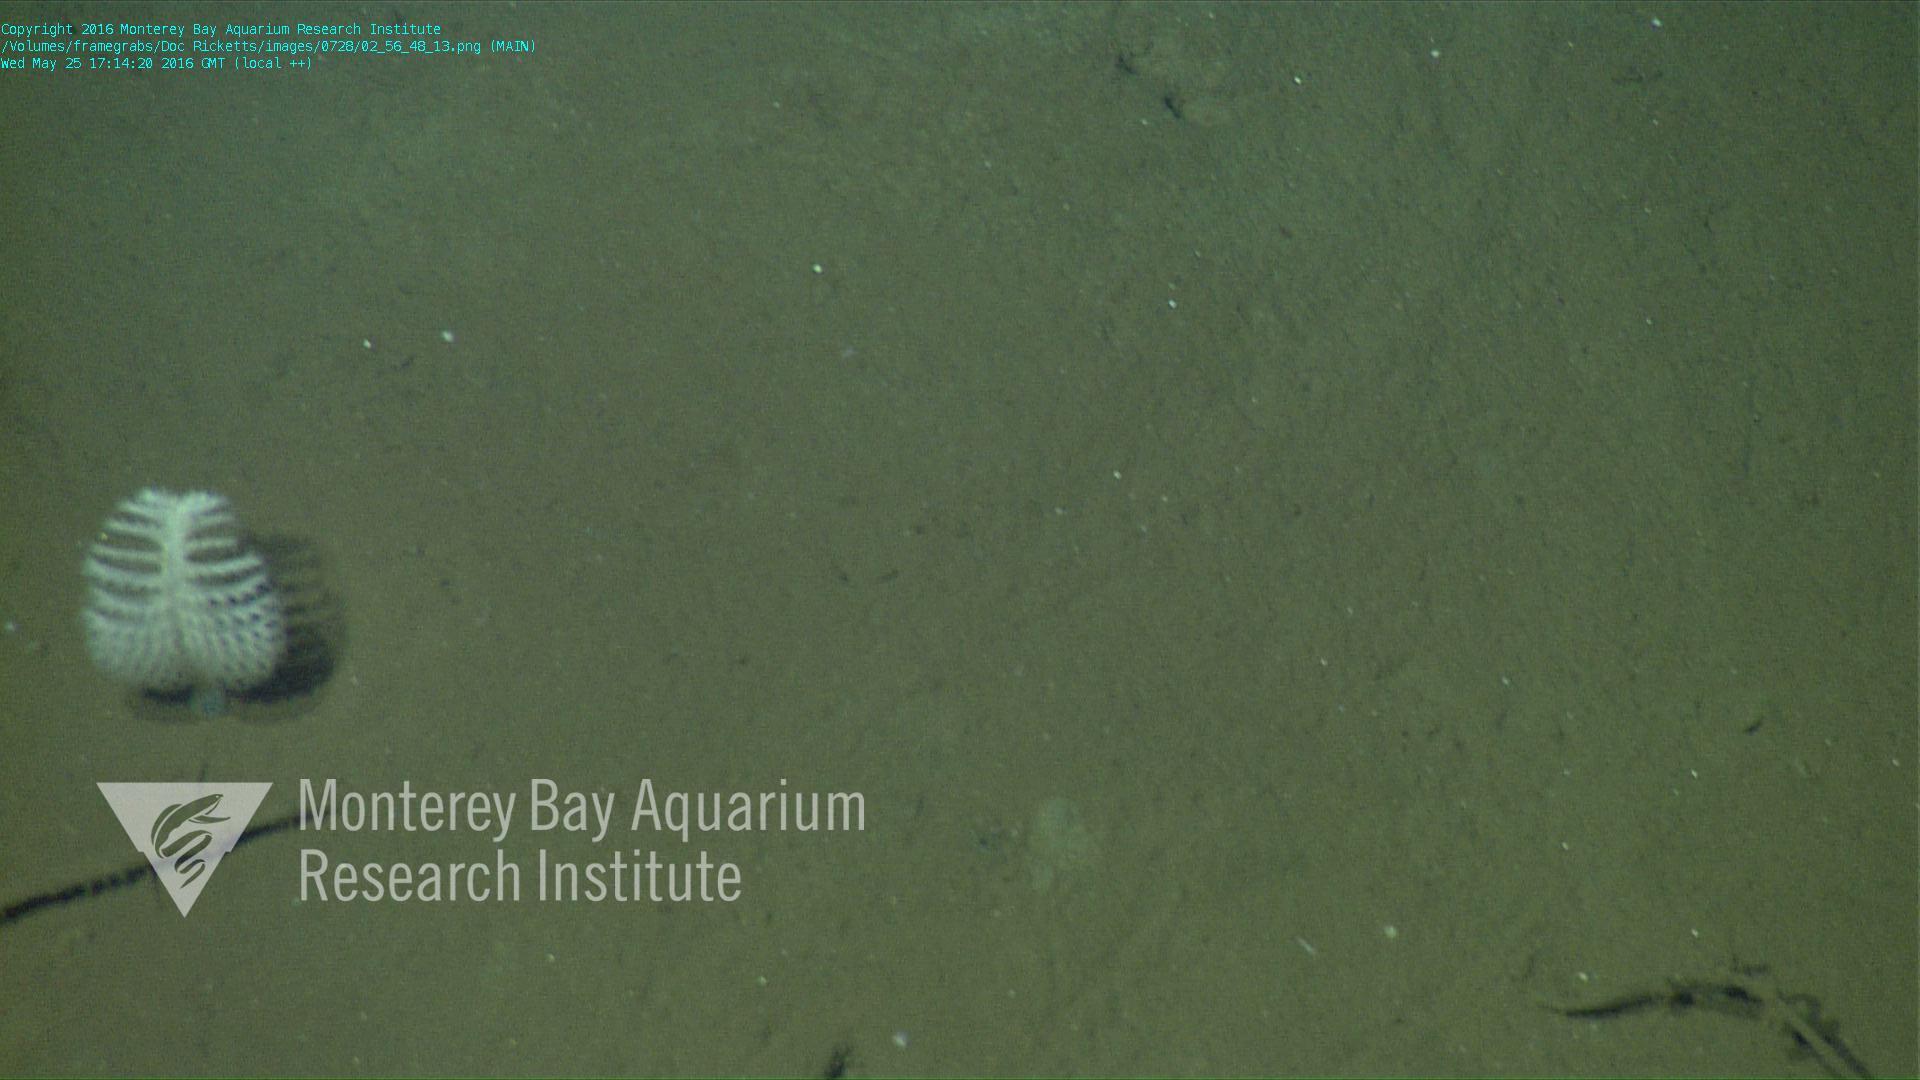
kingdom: Animalia
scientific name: Animalia
